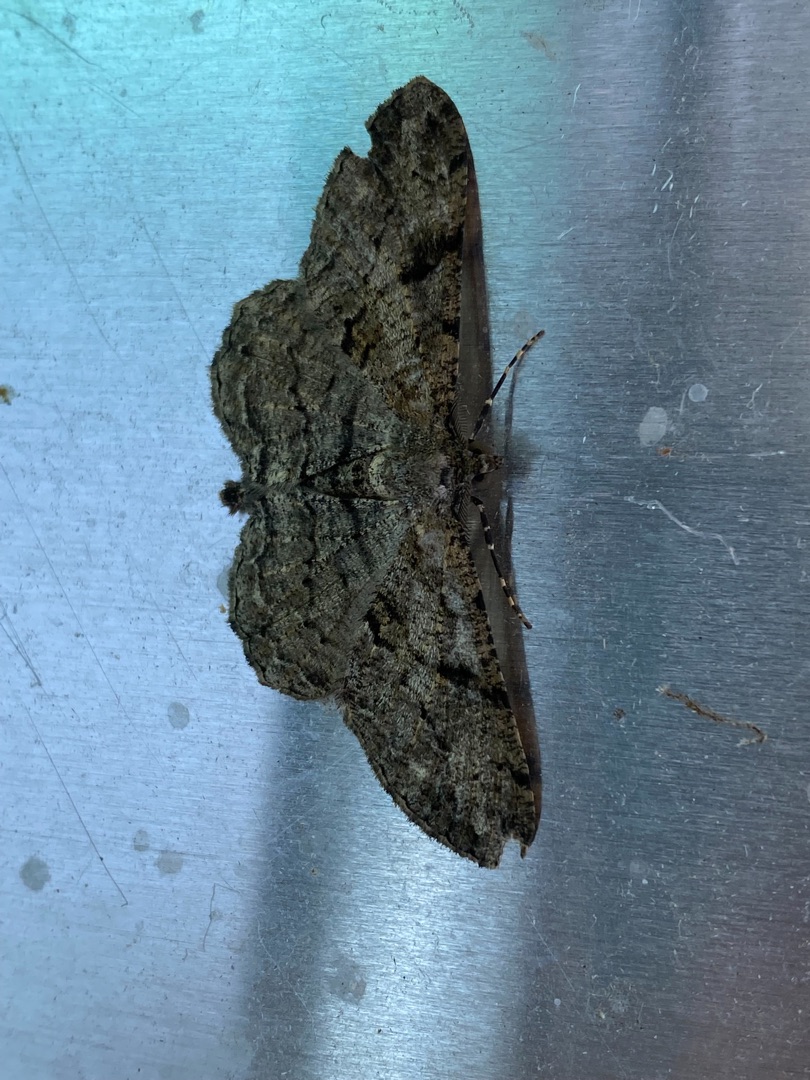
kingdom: Animalia
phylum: Arthropoda
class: Insecta
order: Lepidoptera
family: Geometridae
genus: Peribatodes
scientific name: Peribatodes rhomboidaria
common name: Frugttræ-barkmåler
